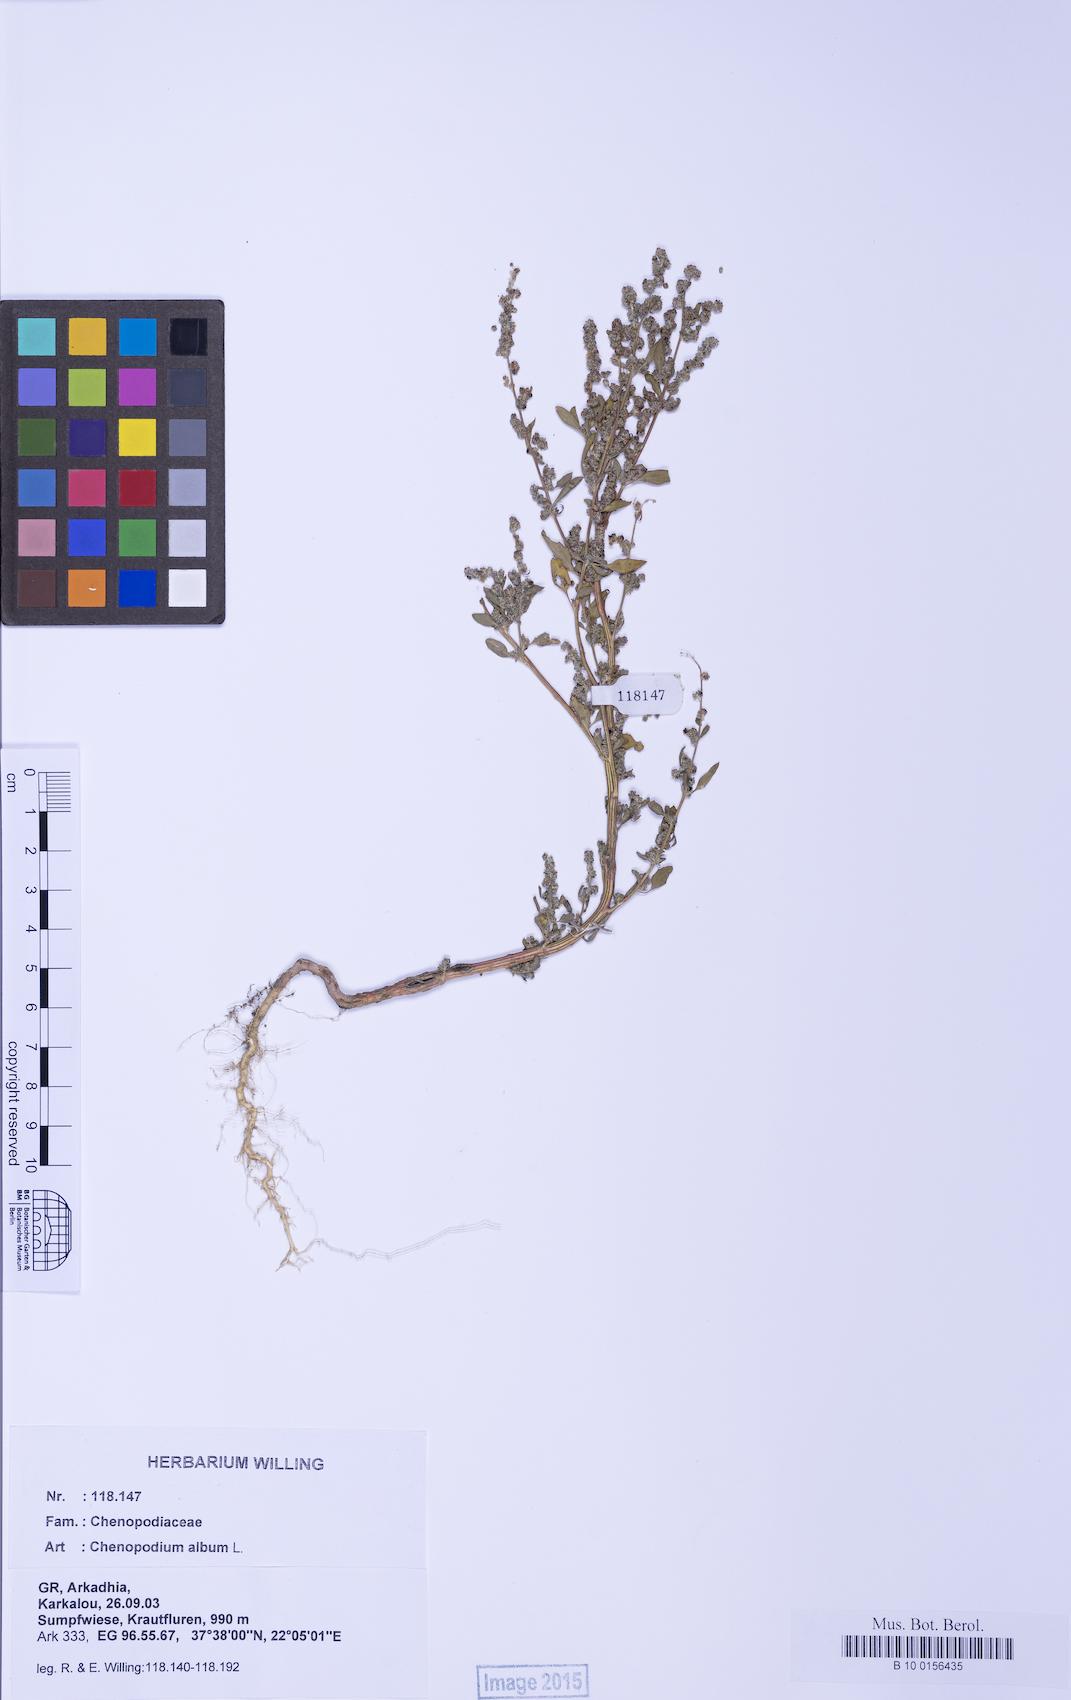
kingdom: Plantae
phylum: Tracheophyta
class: Magnoliopsida
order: Caryophyllales
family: Amaranthaceae
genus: Chenopodium
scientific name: Chenopodium album
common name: Fat-hen
